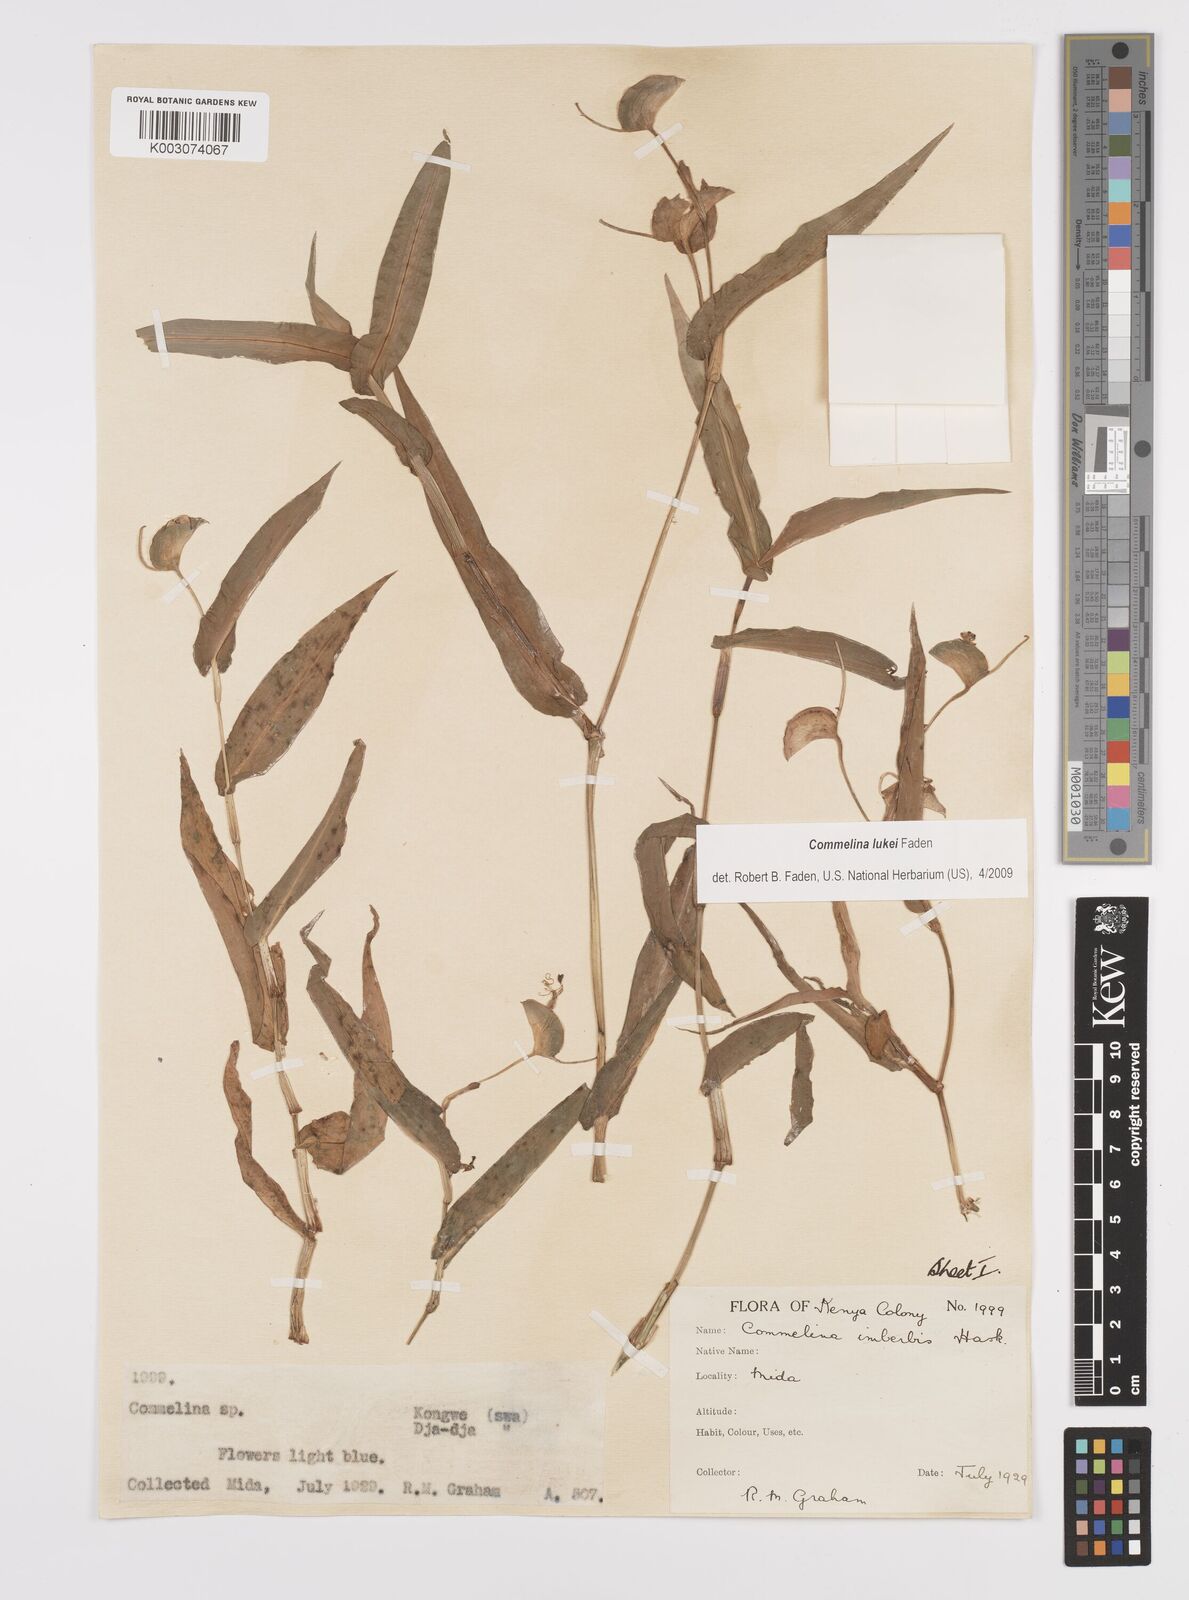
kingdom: Plantae
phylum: Tracheophyta
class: Liliopsida
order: Commelinales
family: Commelinaceae
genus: Commelina
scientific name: Commelina lukei
